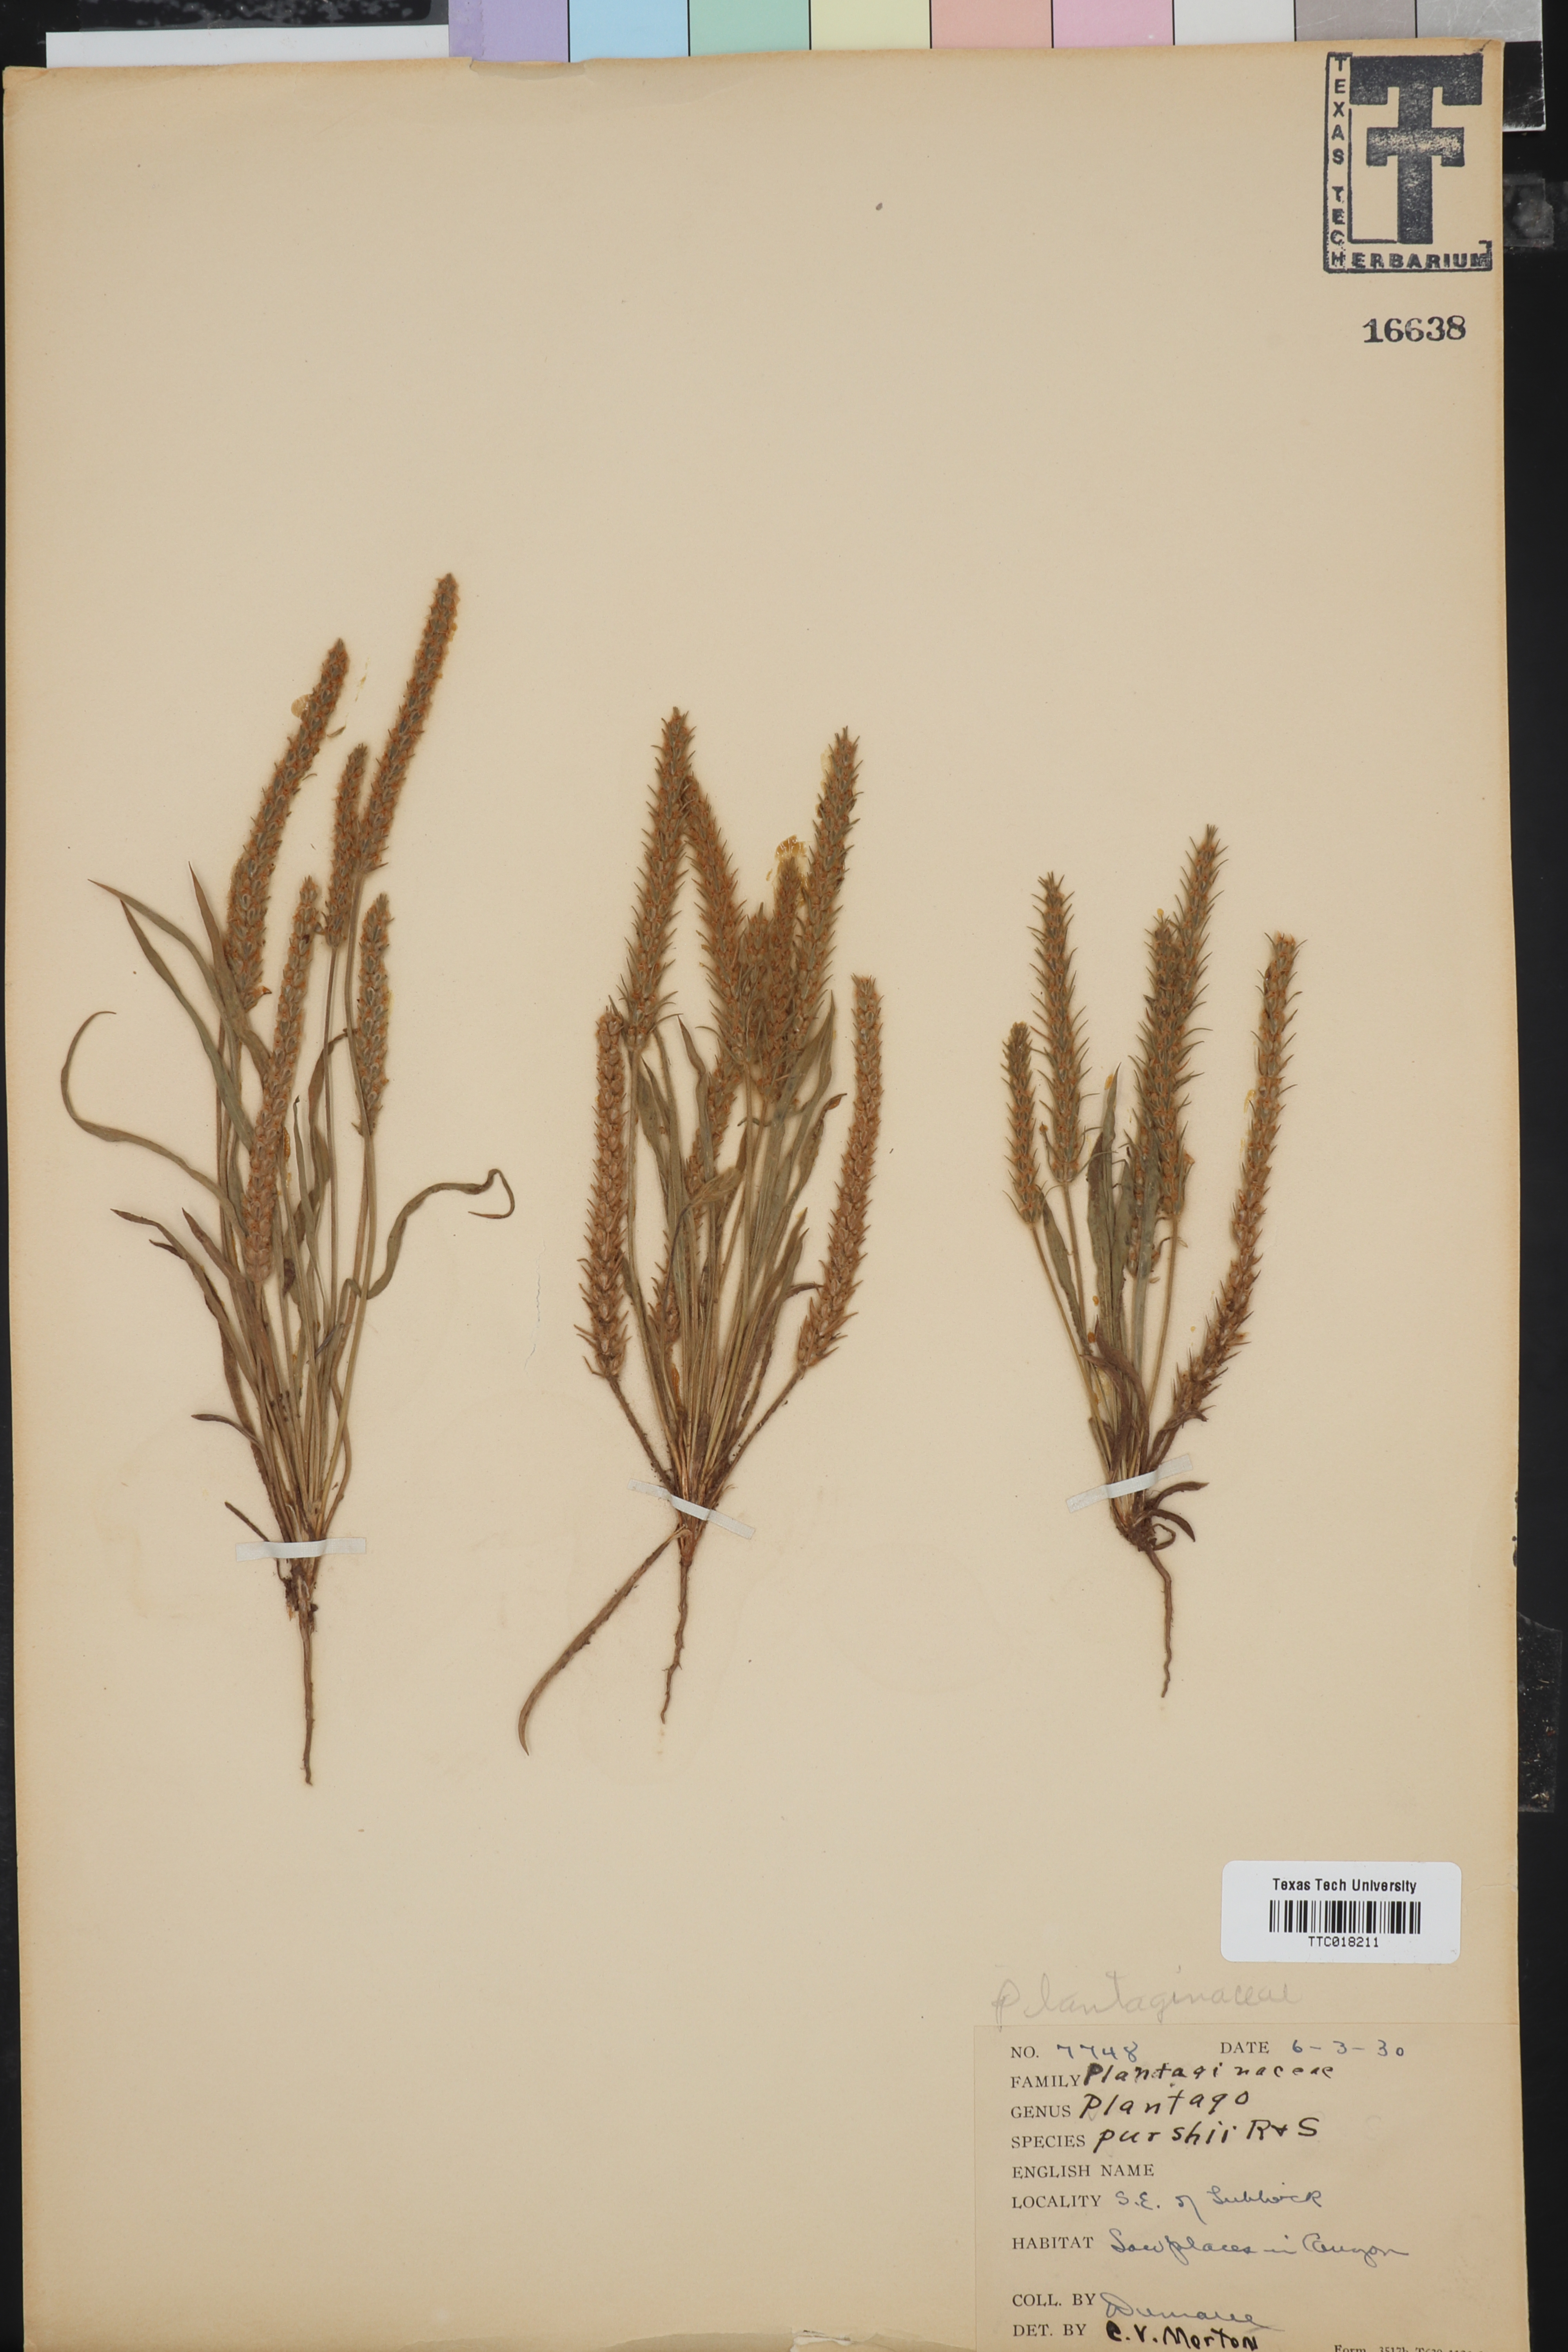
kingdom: Plantae
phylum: Tracheophyta
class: Magnoliopsida
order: Lamiales
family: Plantaginaceae
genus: Plantago
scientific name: Plantago patagonica
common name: Patagonia indian-wheat
